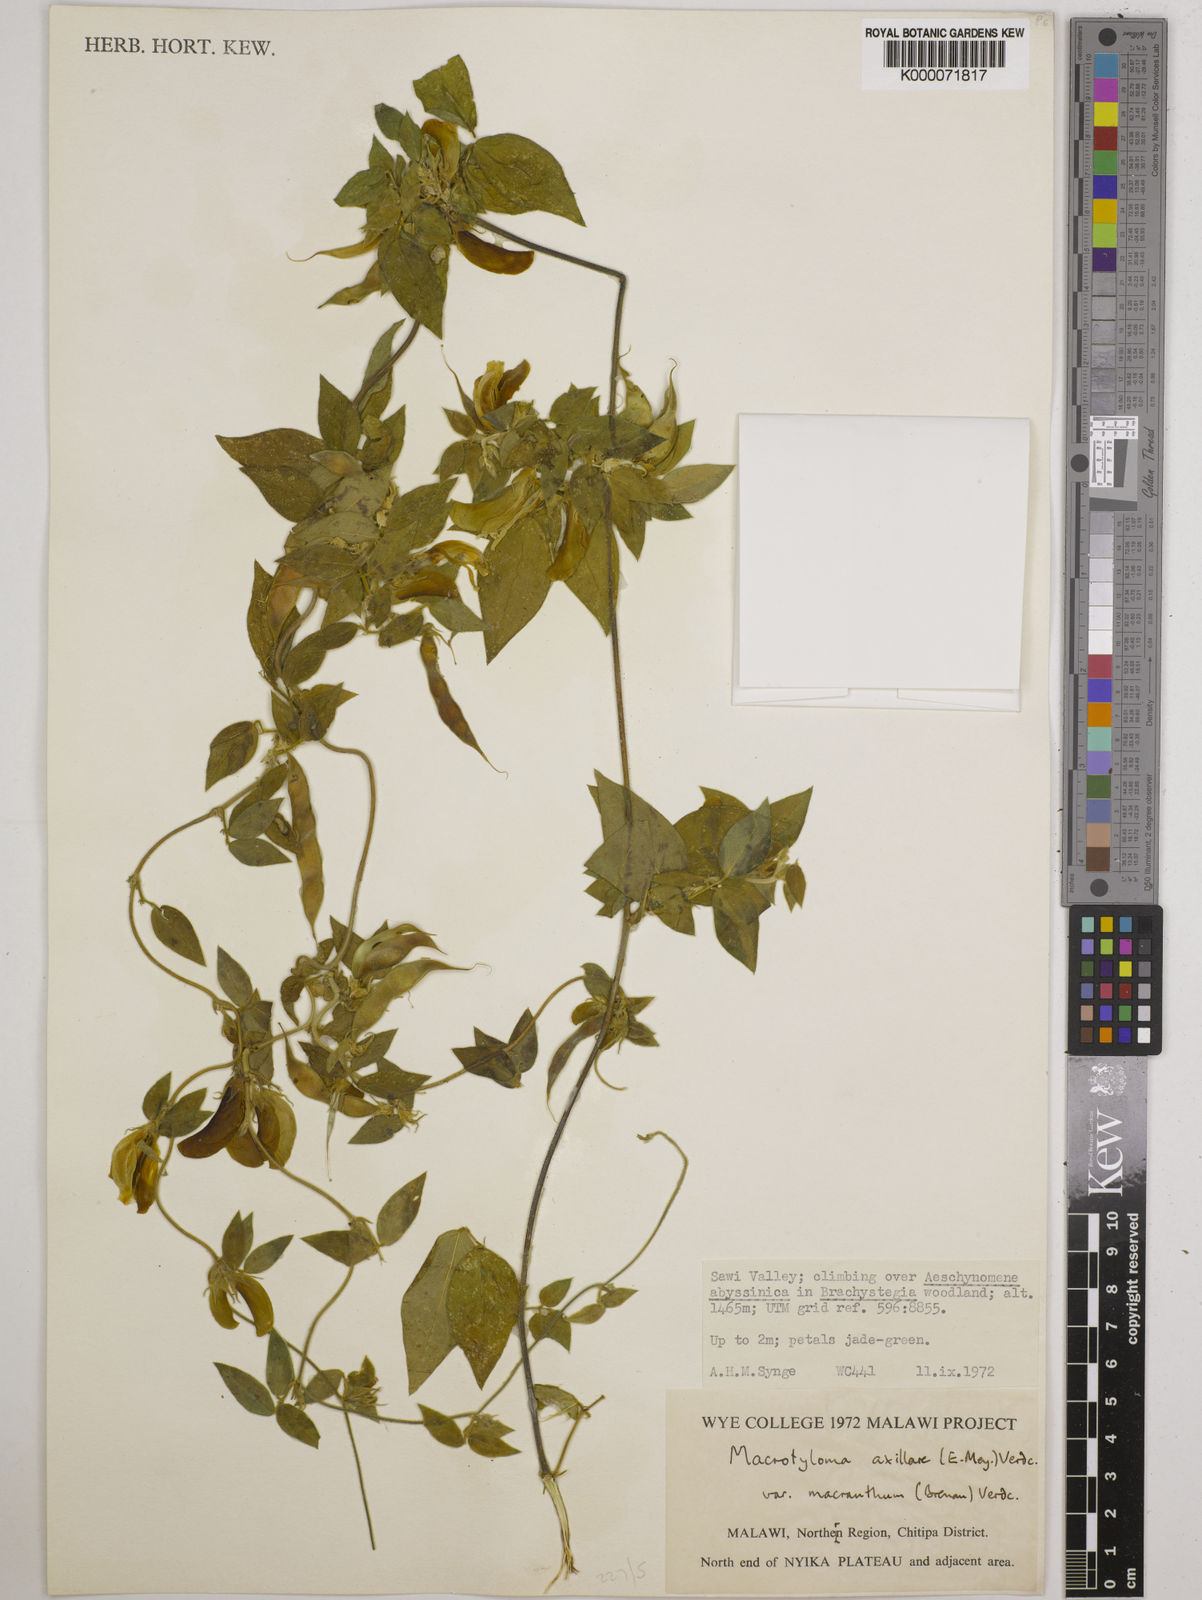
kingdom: Plantae
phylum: Tracheophyta
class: Magnoliopsida
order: Fabales
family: Fabaceae
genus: Macrotyloma
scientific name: Macrotyloma axillare
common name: Perennial horsegram
